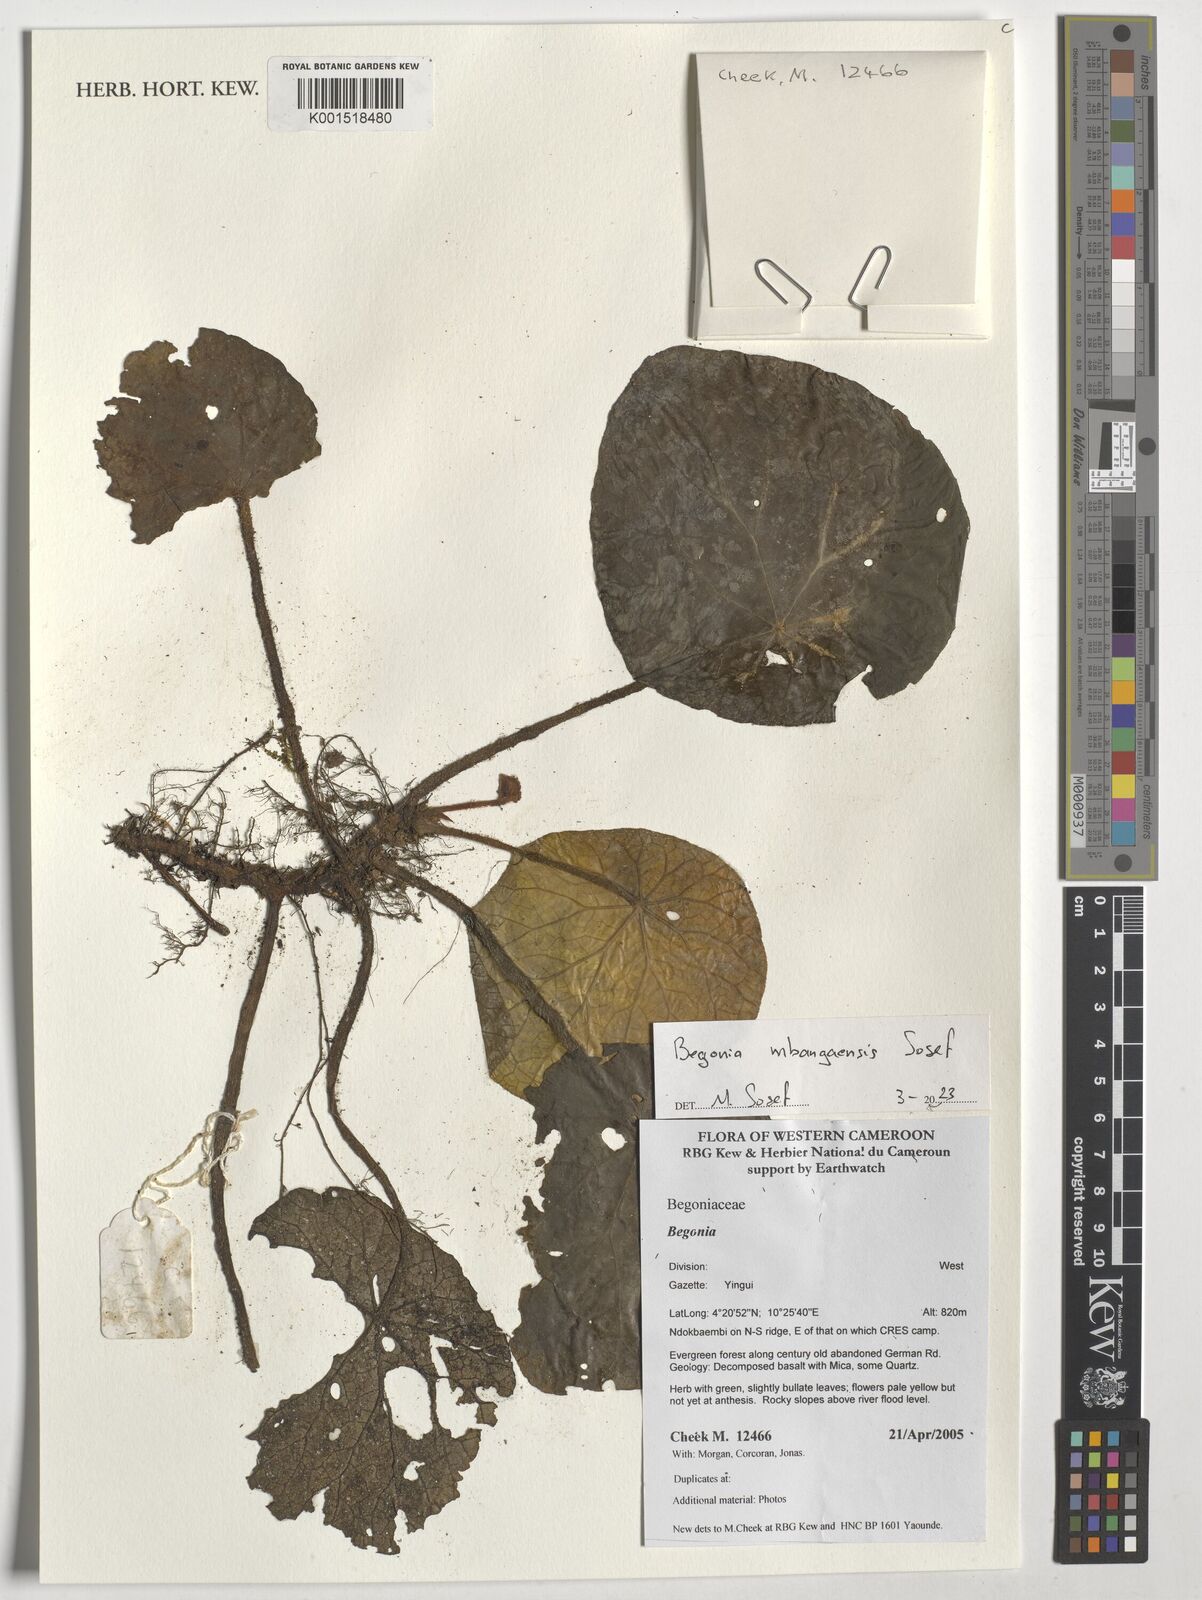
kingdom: Plantae
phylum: Tracheophyta
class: Magnoliopsida
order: Cucurbitales
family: Begoniaceae
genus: Begonia
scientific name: Begonia mbangaensis
